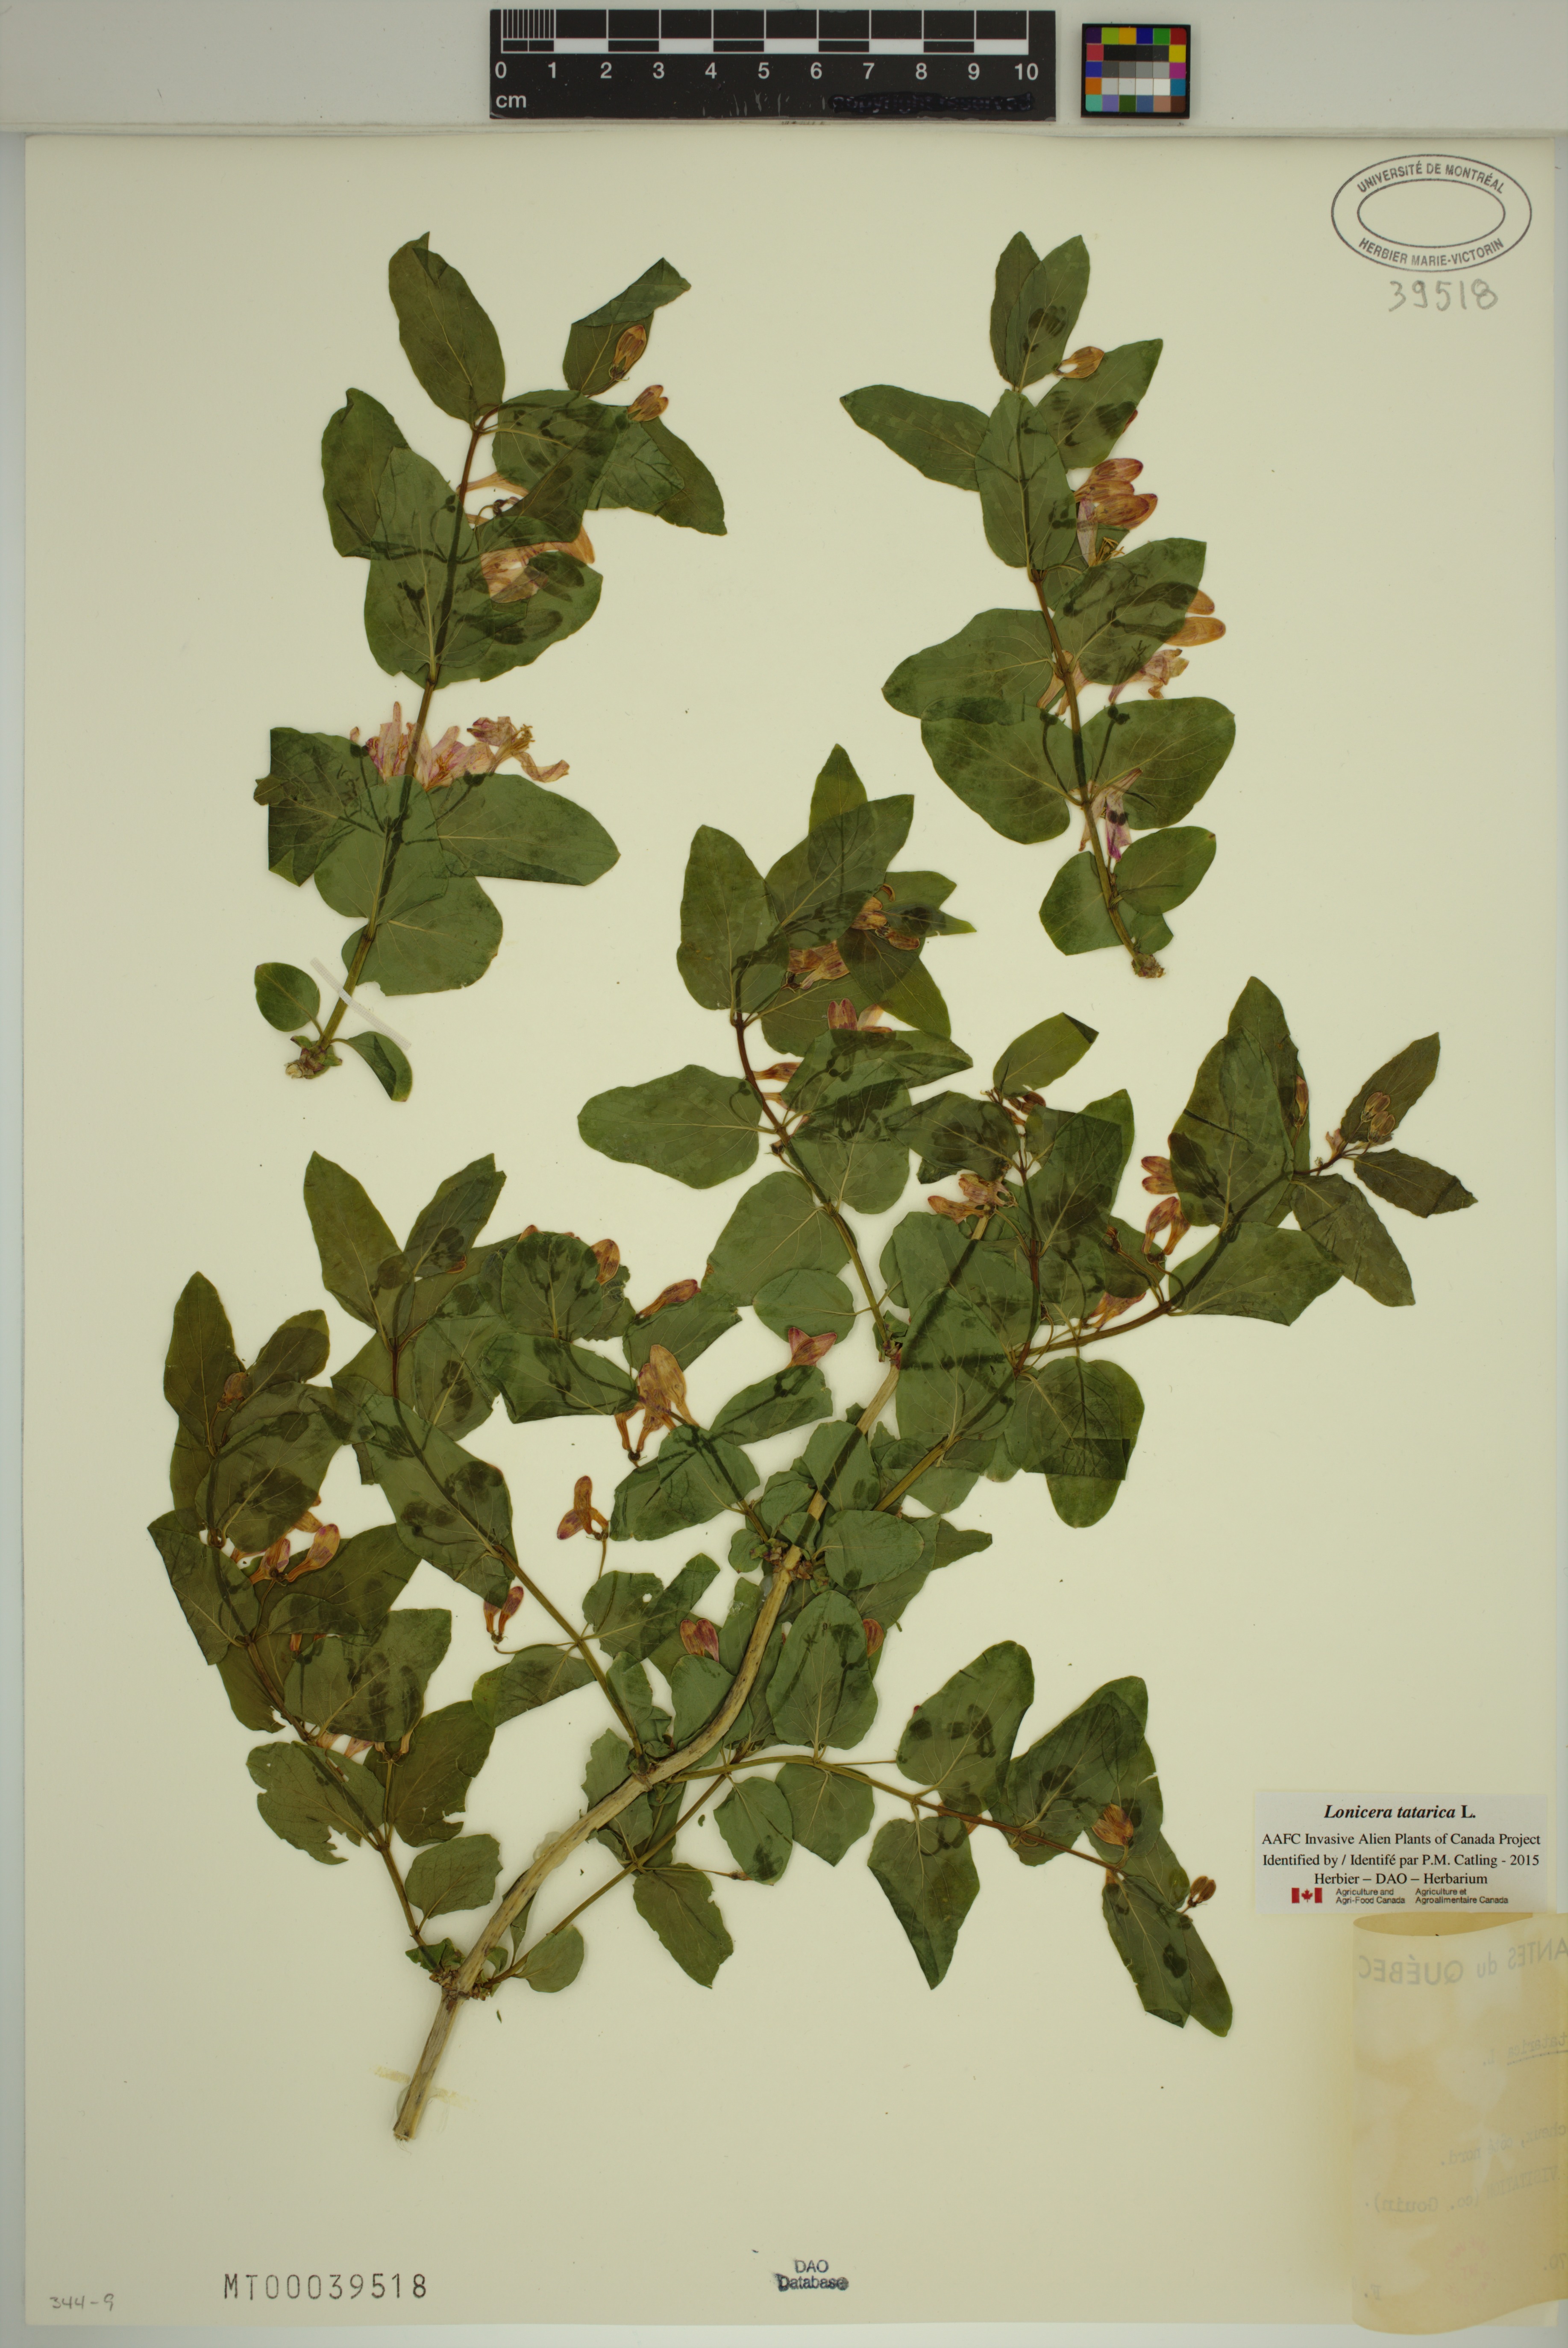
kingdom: Plantae
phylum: Tracheophyta
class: Magnoliopsida
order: Dipsacales
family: Caprifoliaceae
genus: Lonicera
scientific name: Lonicera tatarica
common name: Tatarian honeysuckle
